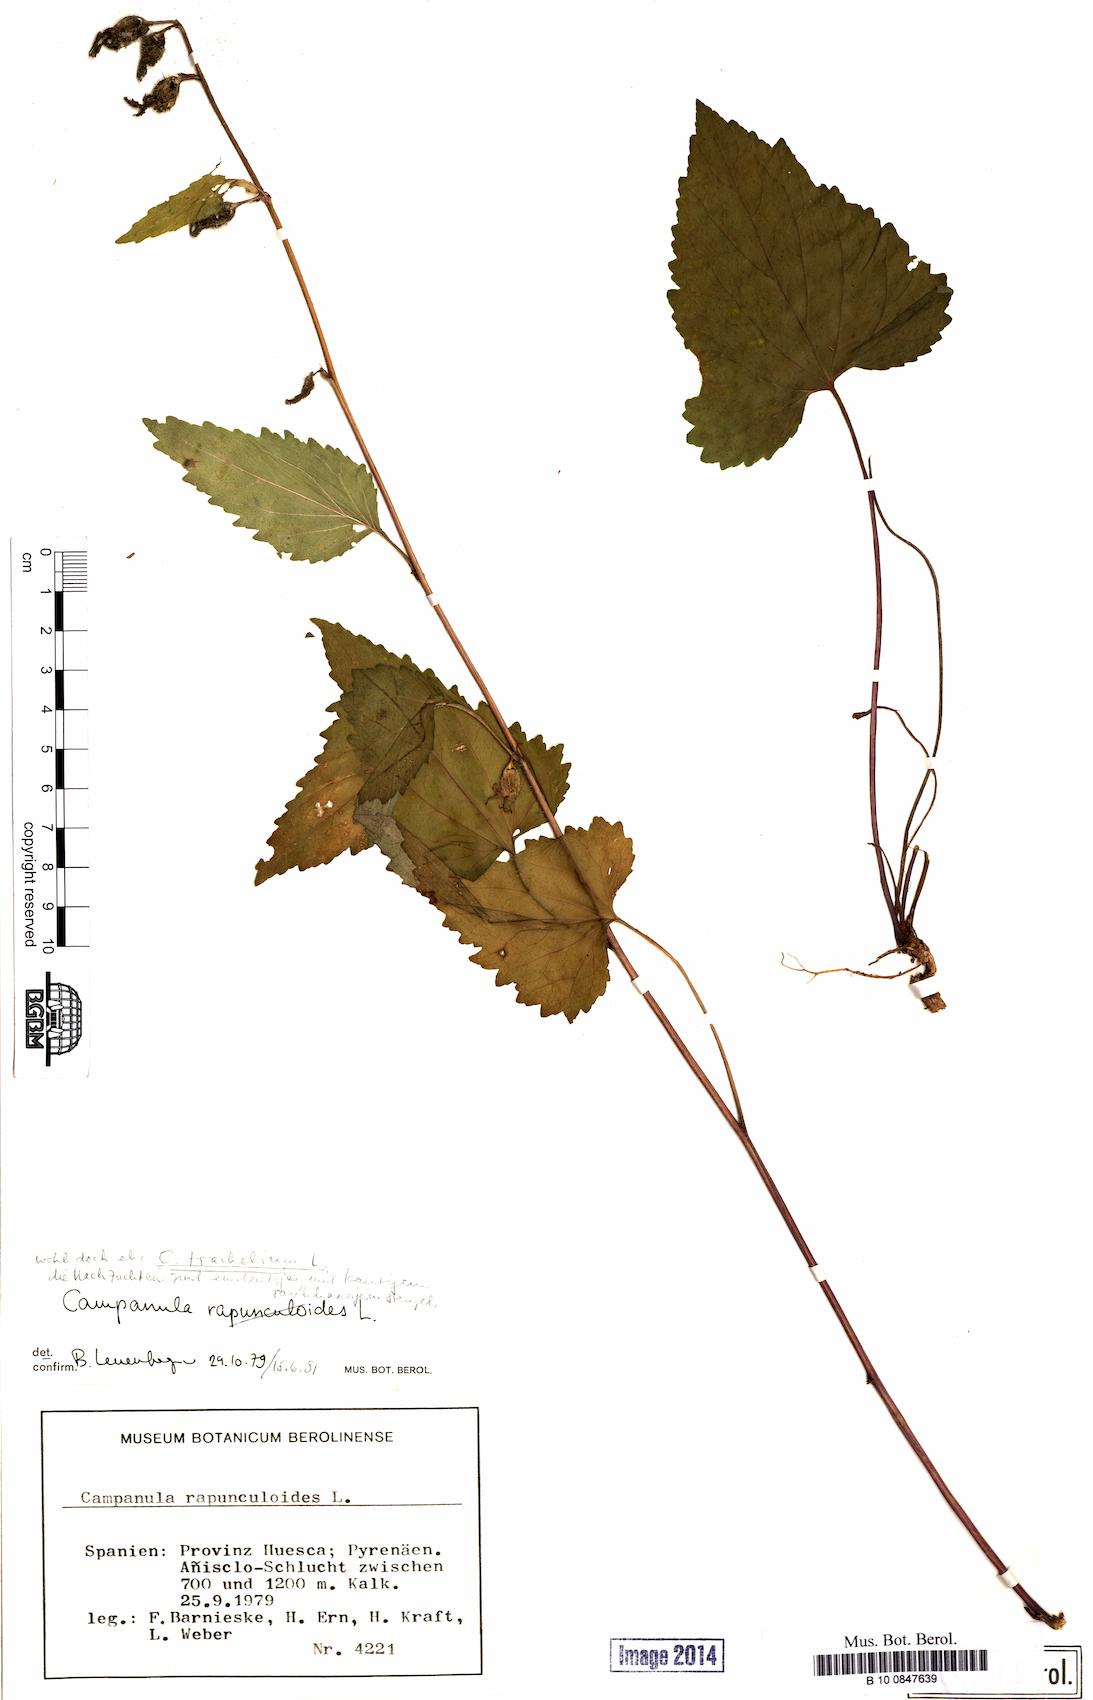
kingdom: Plantae
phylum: Tracheophyta
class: Magnoliopsida
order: Asterales
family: Campanulaceae
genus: Campanula
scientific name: Campanula trachelium
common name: Nettle-leaved bellflower
